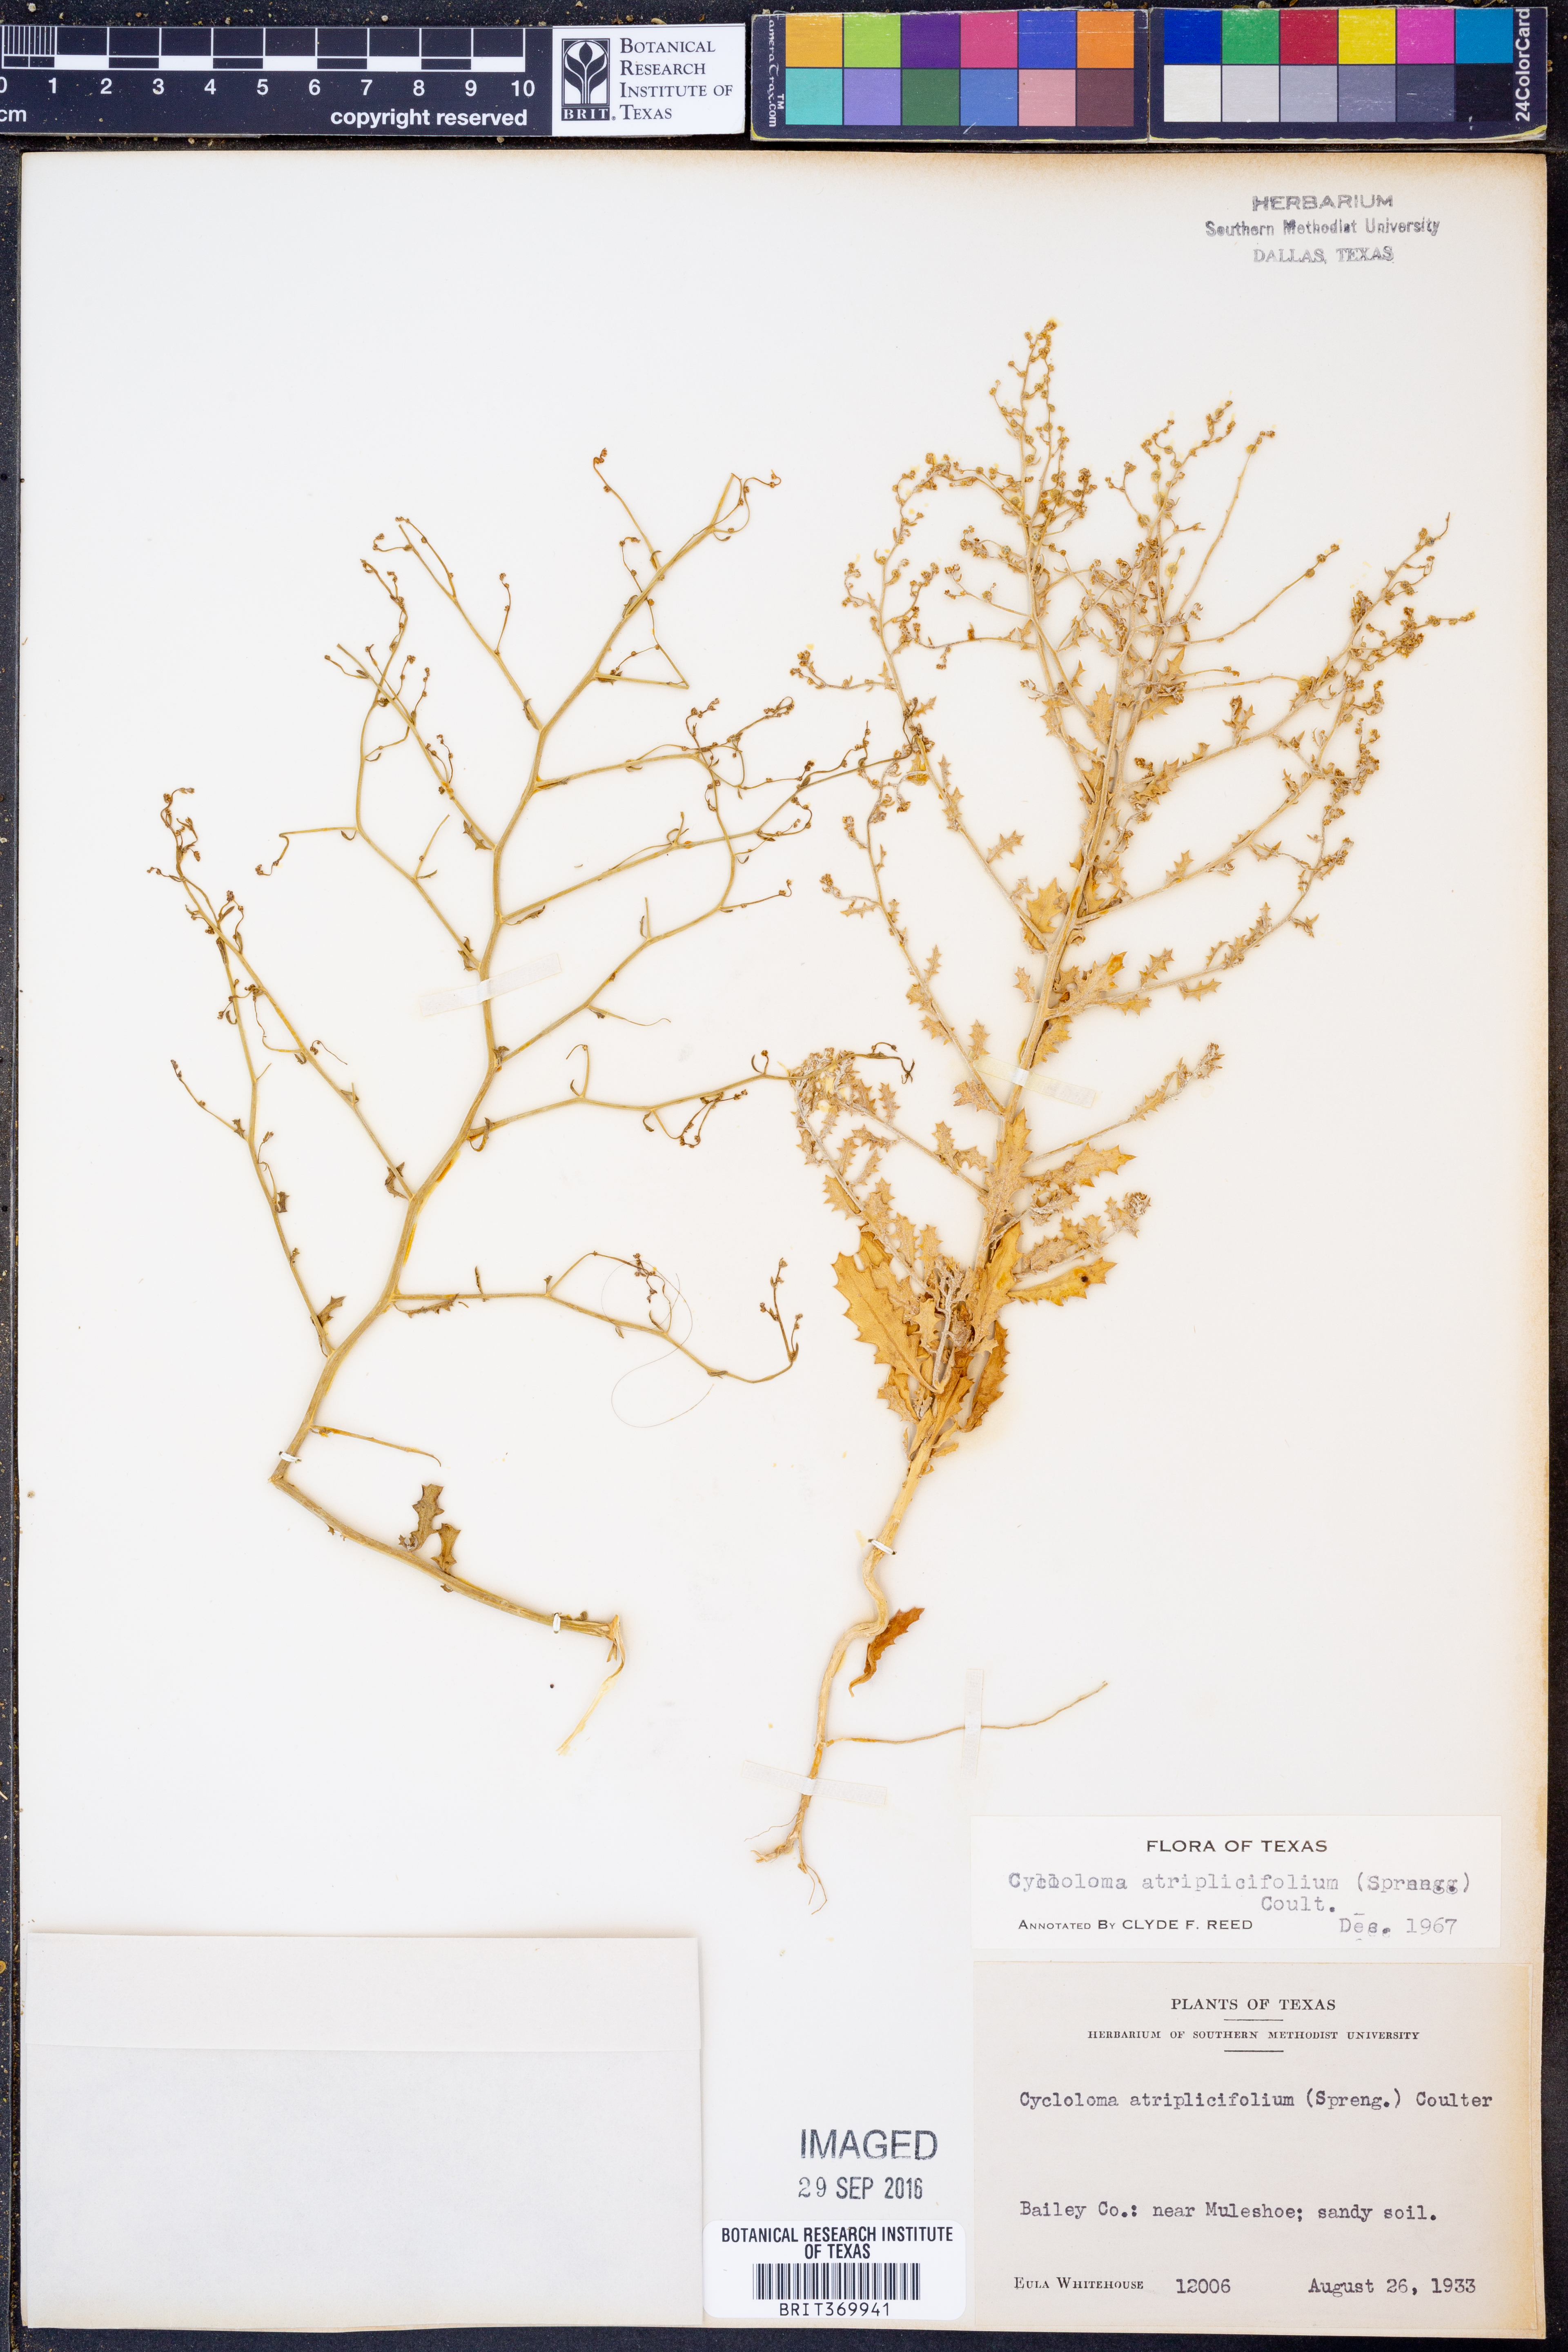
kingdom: Plantae
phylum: Tracheophyta
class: Magnoliopsida
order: Caryophyllales
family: Amaranthaceae
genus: Dysphania
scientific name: Dysphania atriplicifolia
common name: Plains tumbleweed
